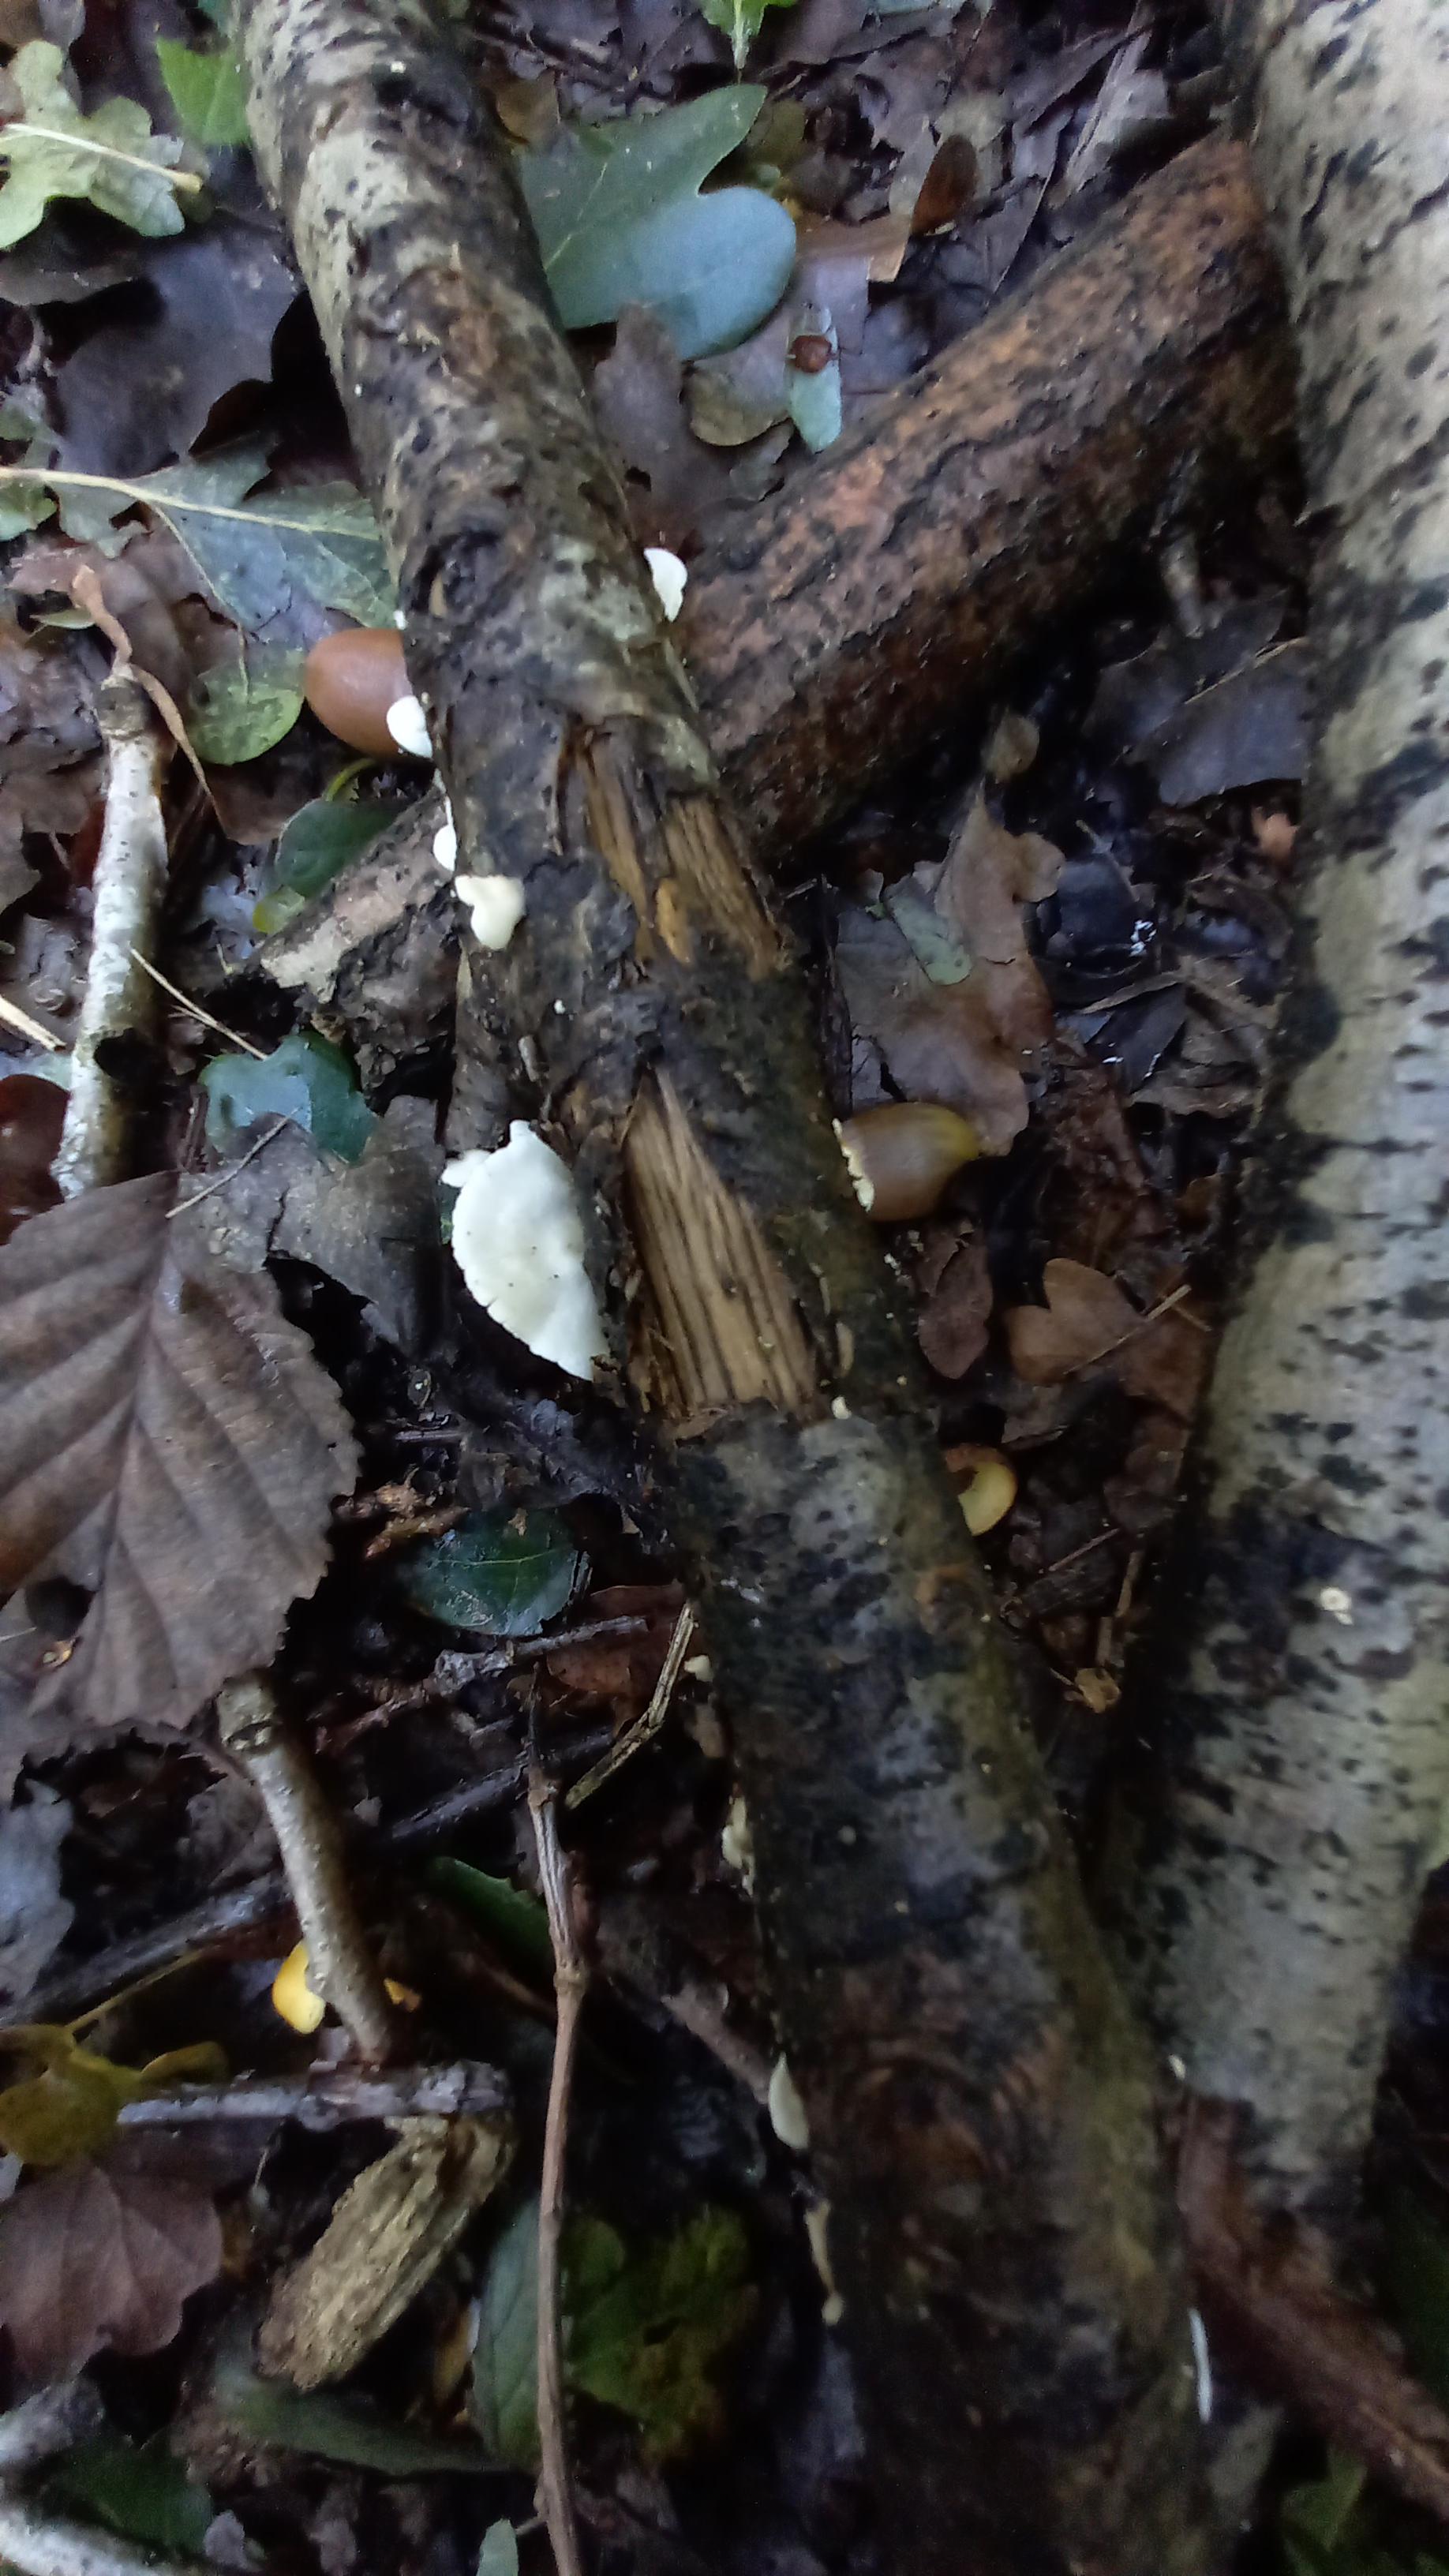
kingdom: Fungi
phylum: Basidiomycota
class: Agaricomycetes
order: Agaricales
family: Crepidotaceae
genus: Crepidotus
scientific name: Crepidotus
